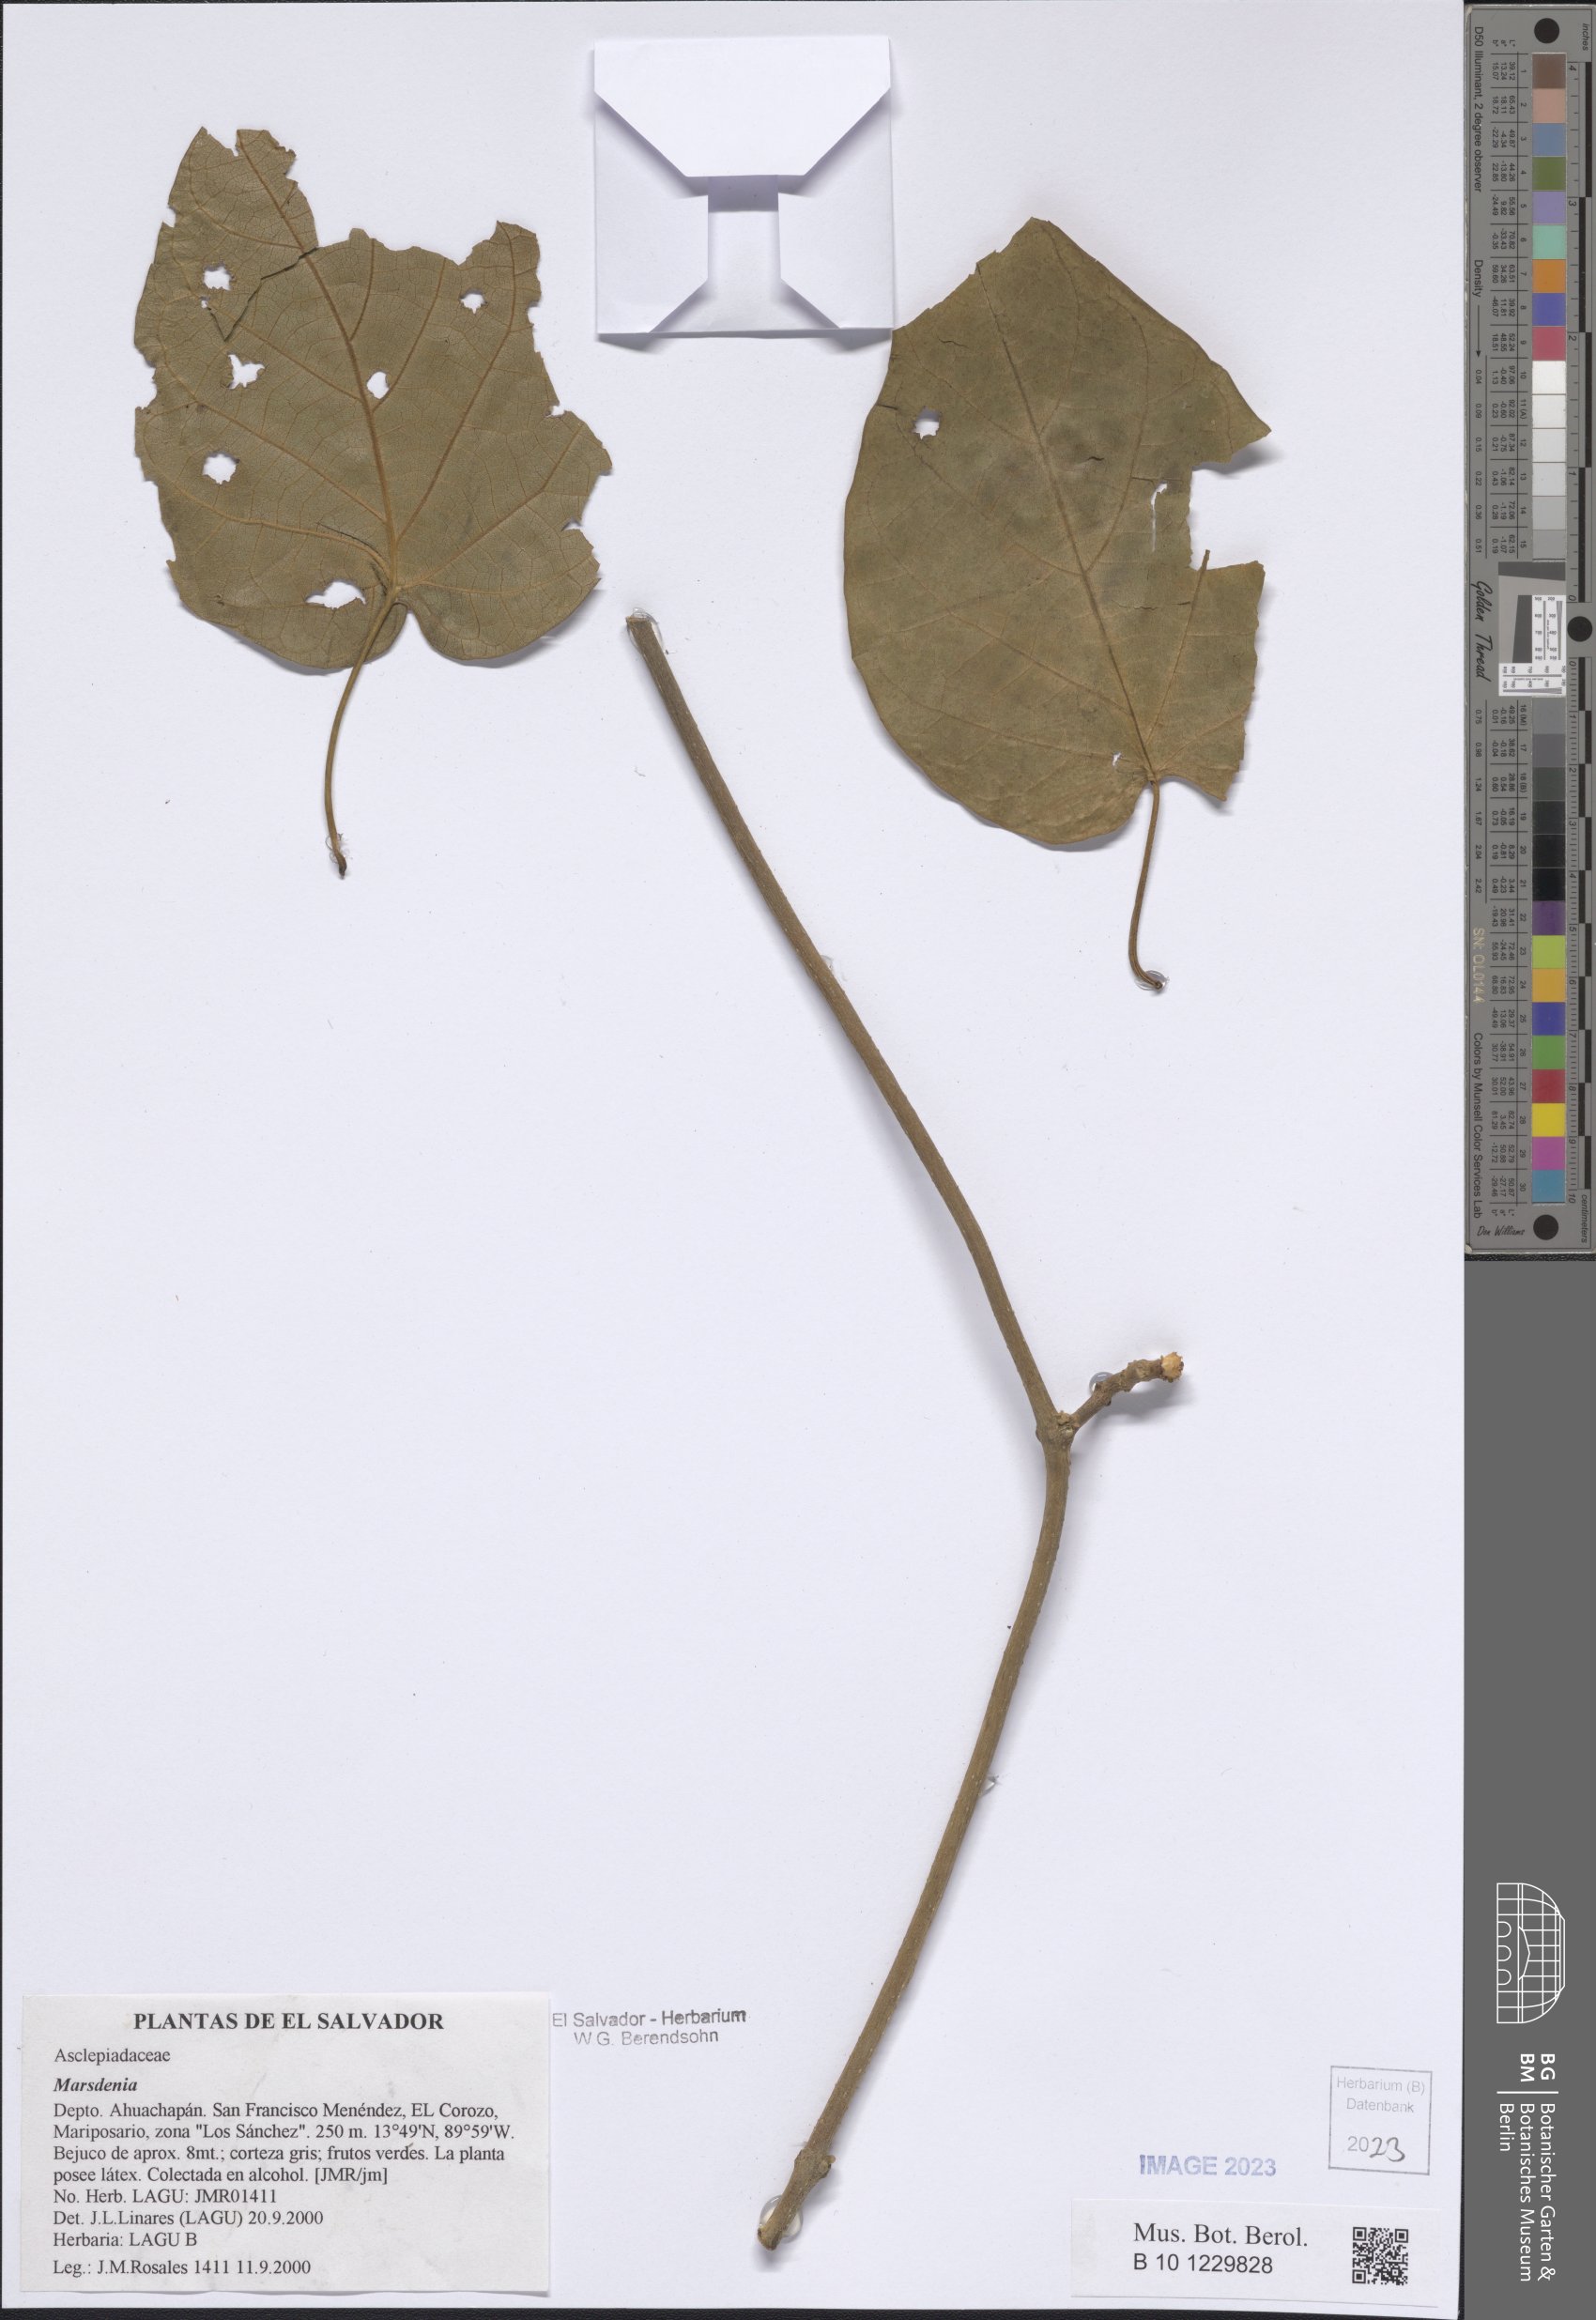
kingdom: Plantae
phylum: Tracheophyta
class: Magnoliopsida
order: Gentianales
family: Apocynaceae
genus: Marsdenia
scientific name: Marsdenia
